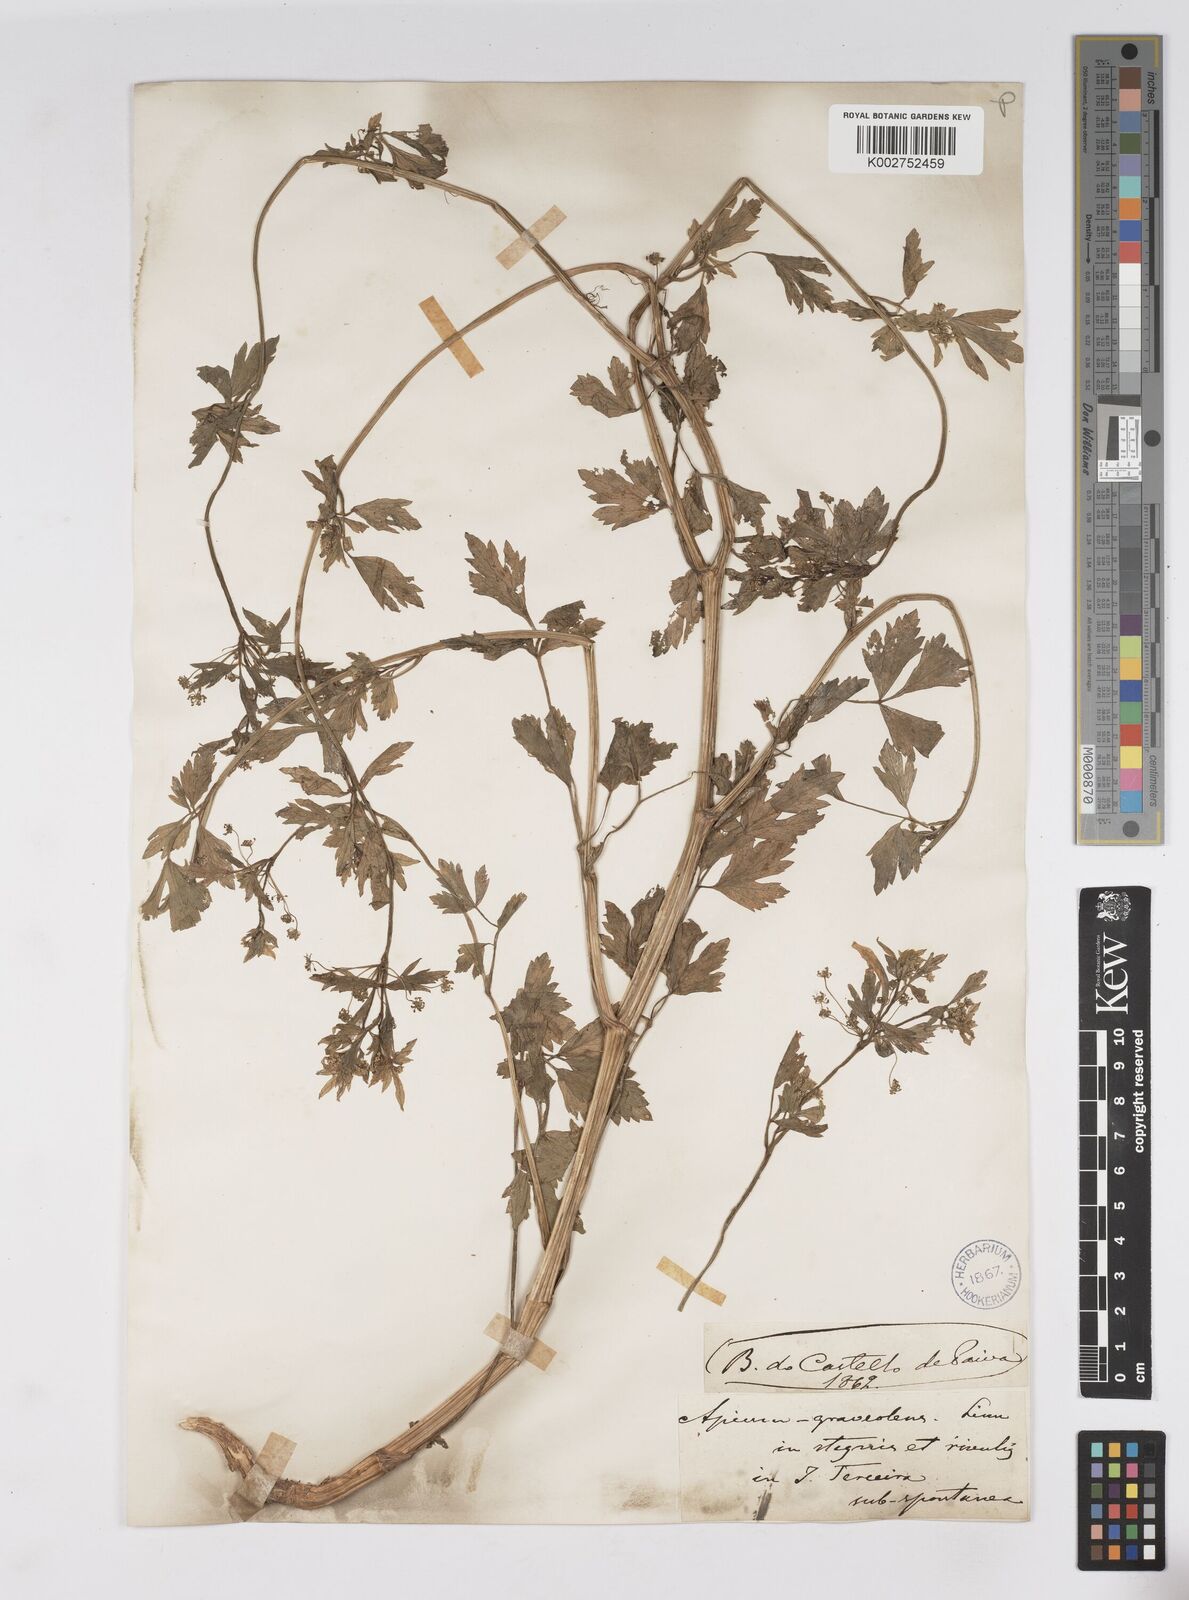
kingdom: Plantae
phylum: Tracheophyta
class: Magnoliopsida
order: Apiales
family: Apiaceae
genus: Apium
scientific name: Apium graveolens
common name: Wild celery
